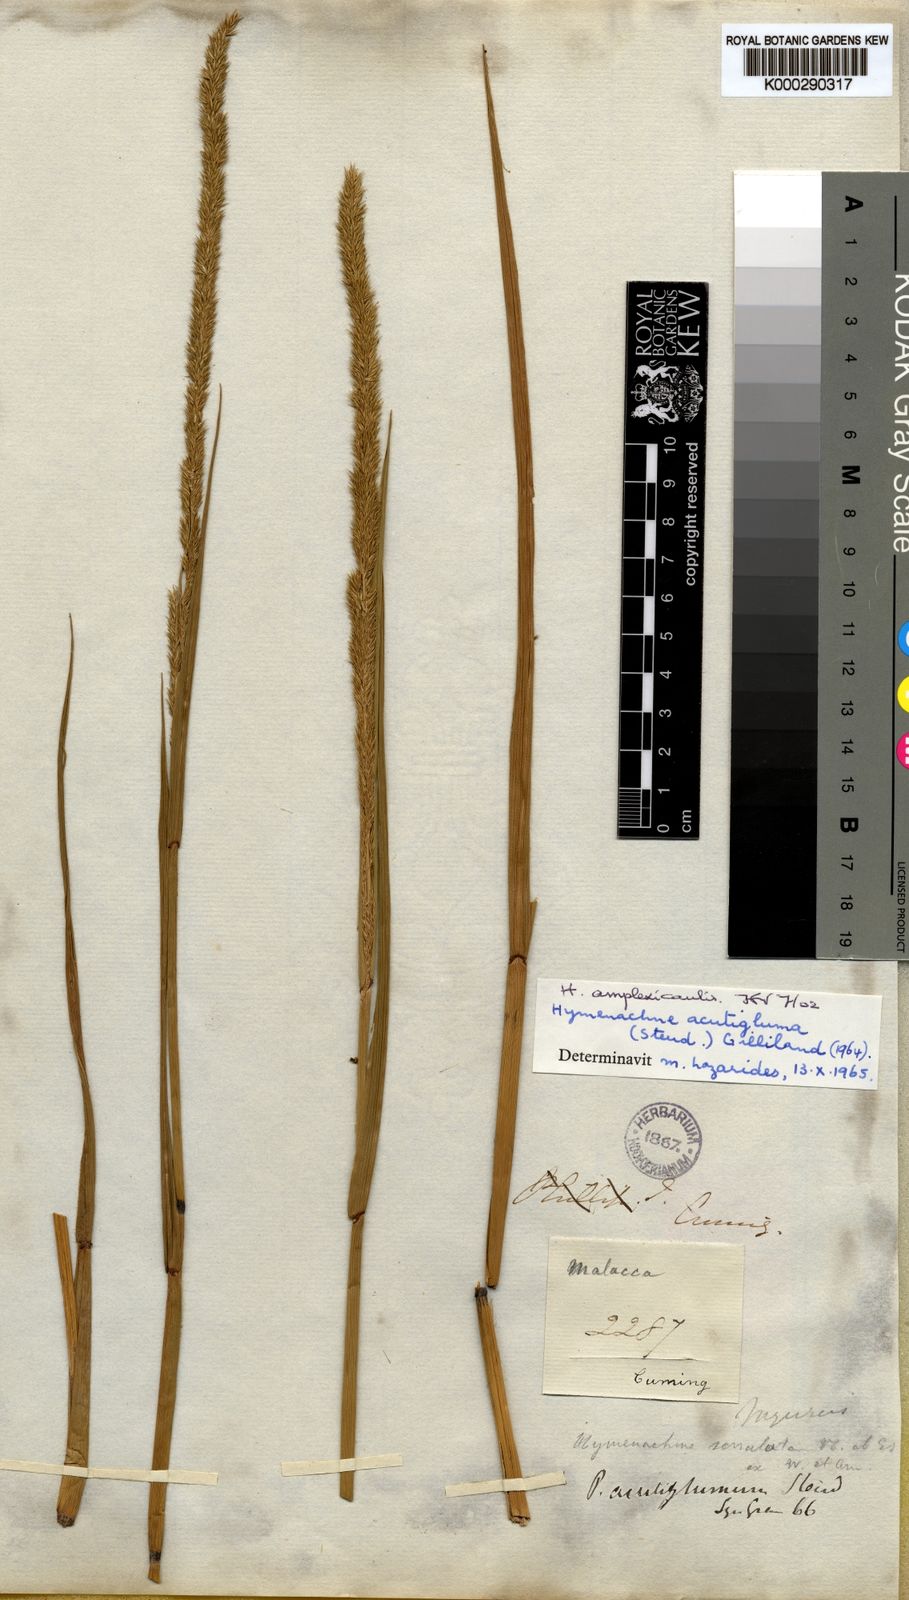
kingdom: Plantae
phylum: Tracheophyta
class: Liliopsida
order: Poales
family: Poaceae
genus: Hymenachne
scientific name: Hymenachne amplexicaulis
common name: Olive hymenachne
